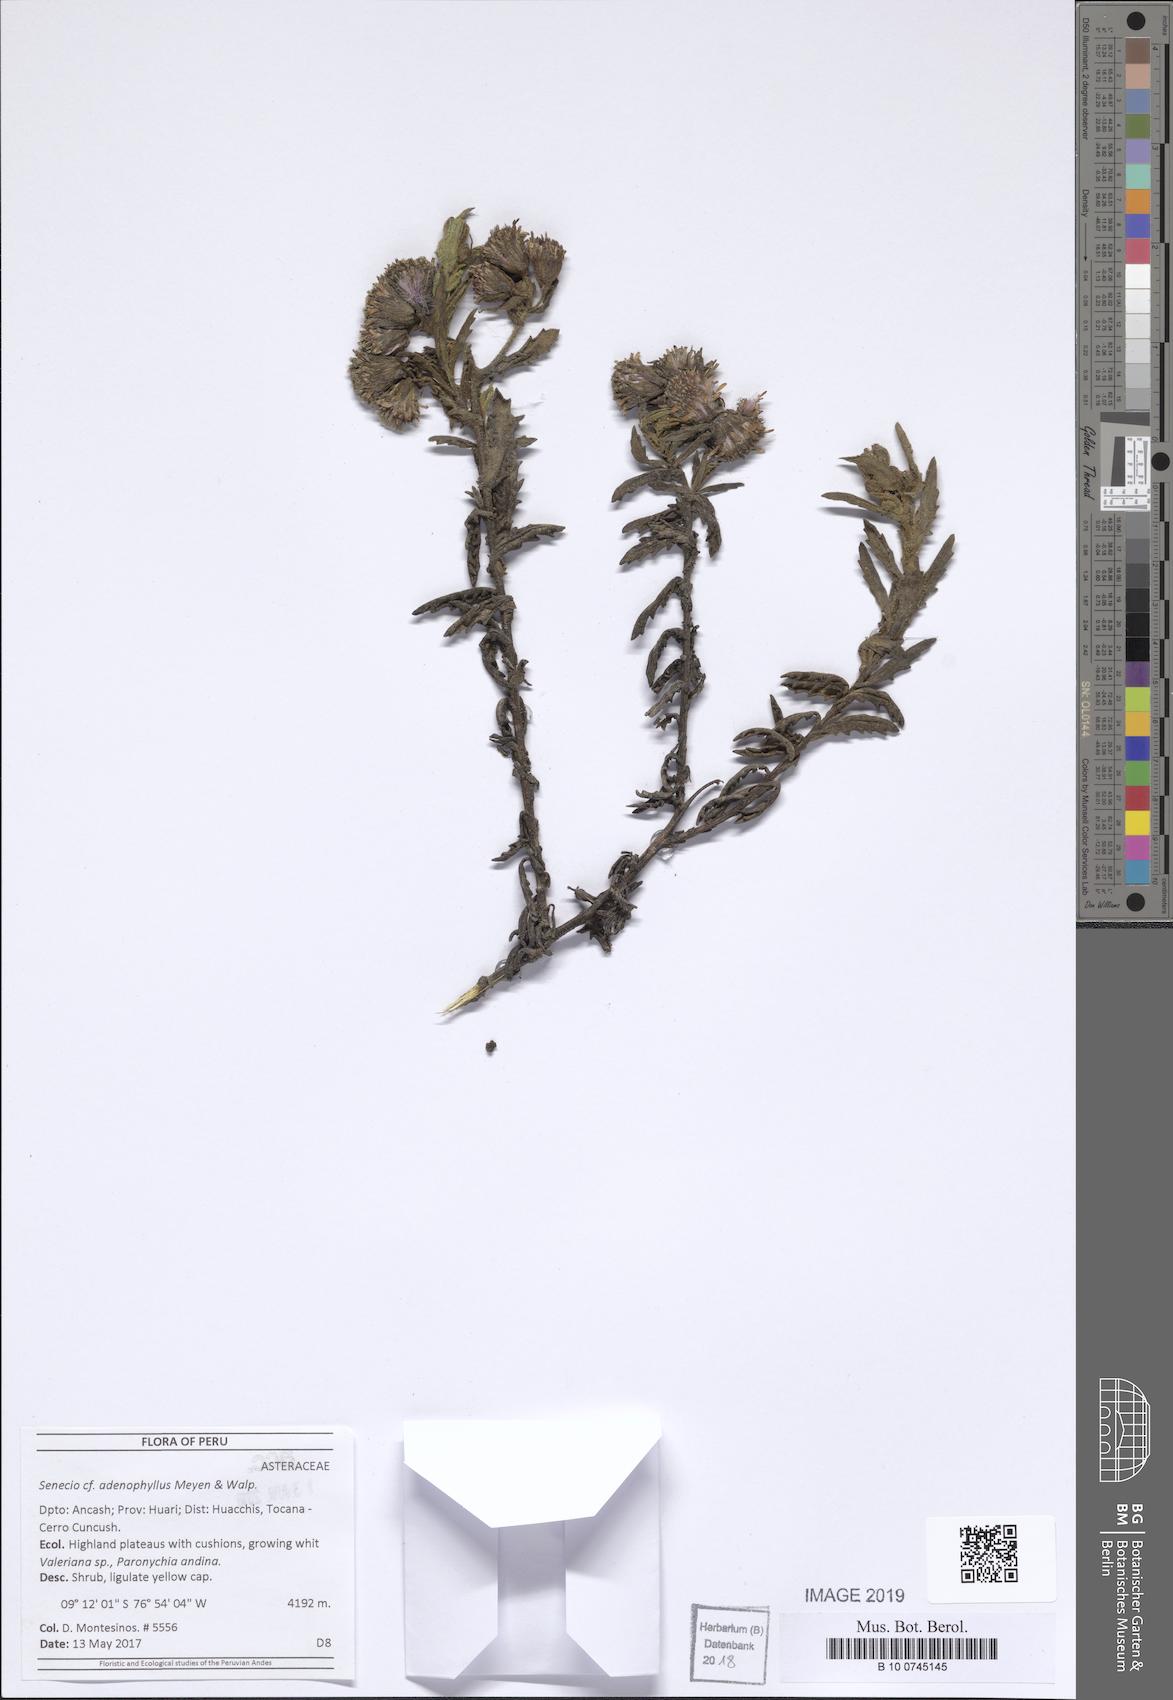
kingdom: Plantae
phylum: Tracheophyta
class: Magnoliopsida
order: Asterales
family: Asteraceae
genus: Senecio
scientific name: Senecio adenophyllus
